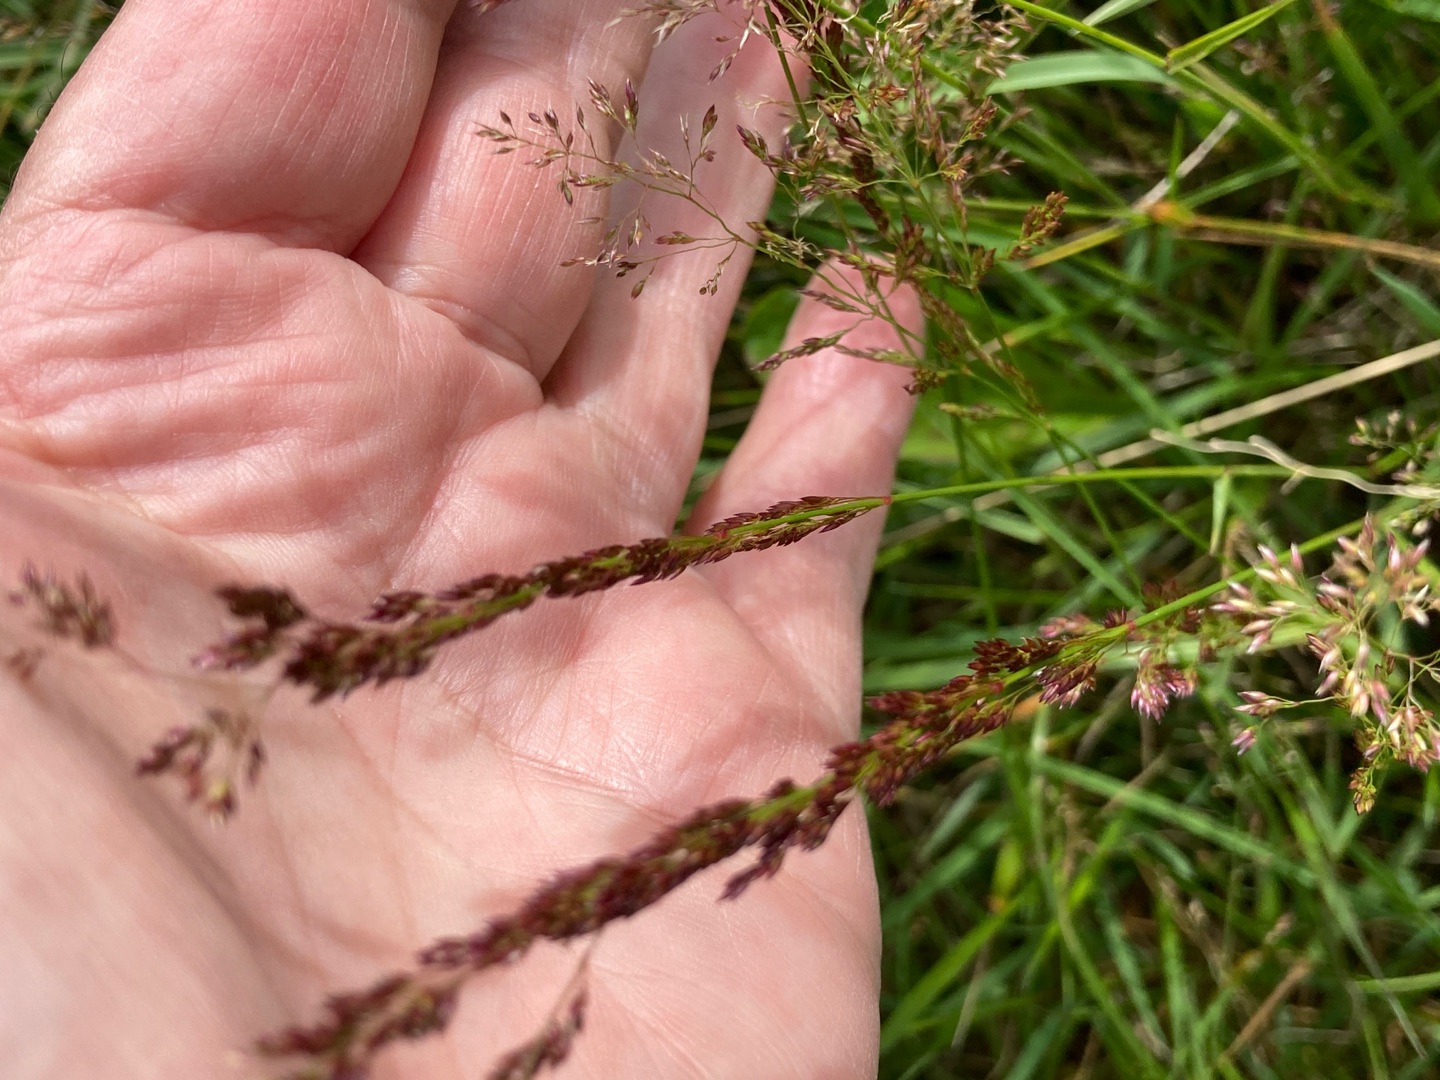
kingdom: Plantae
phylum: Tracheophyta
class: Liliopsida
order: Poales
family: Poaceae
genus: Agrostis
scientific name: Agrostis stolonifera
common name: Kryb-hvene
